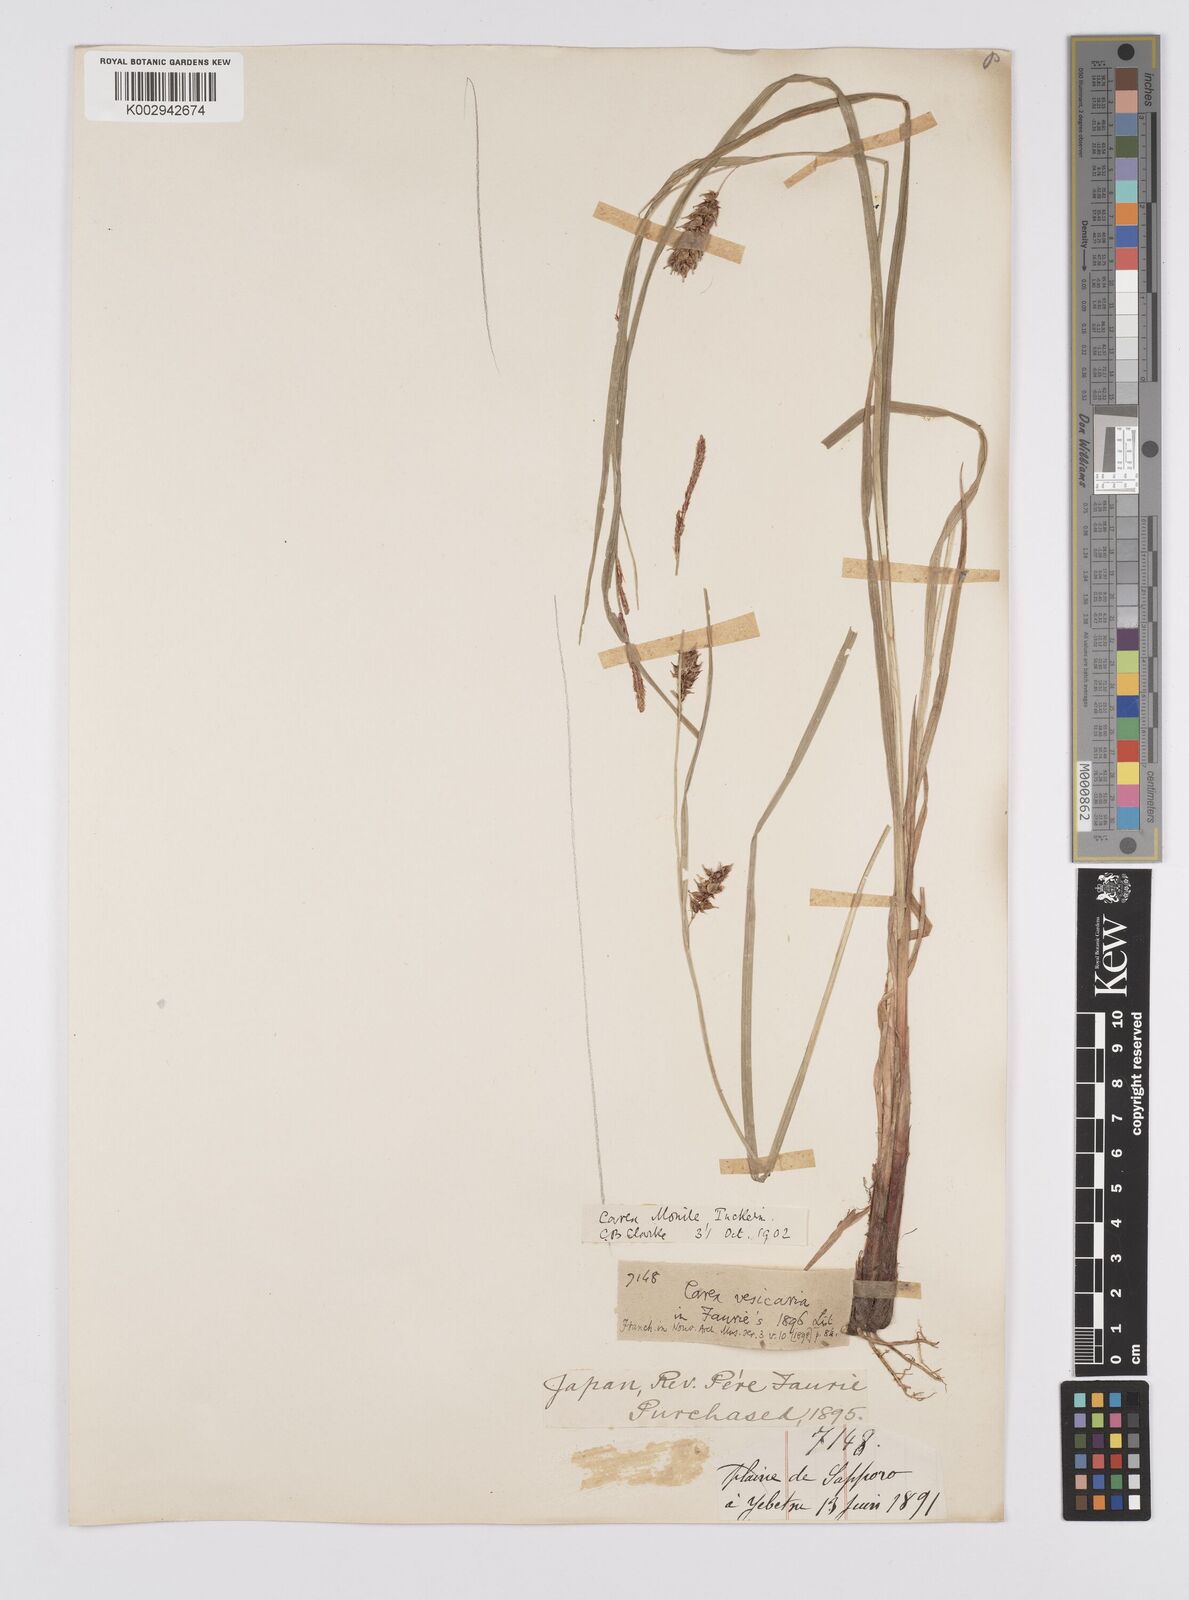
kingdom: Plantae
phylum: Tracheophyta
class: Liliopsida
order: Poales
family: Cyperaceae
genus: Carex
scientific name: Carex vesicaria
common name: Bladder-sedge
